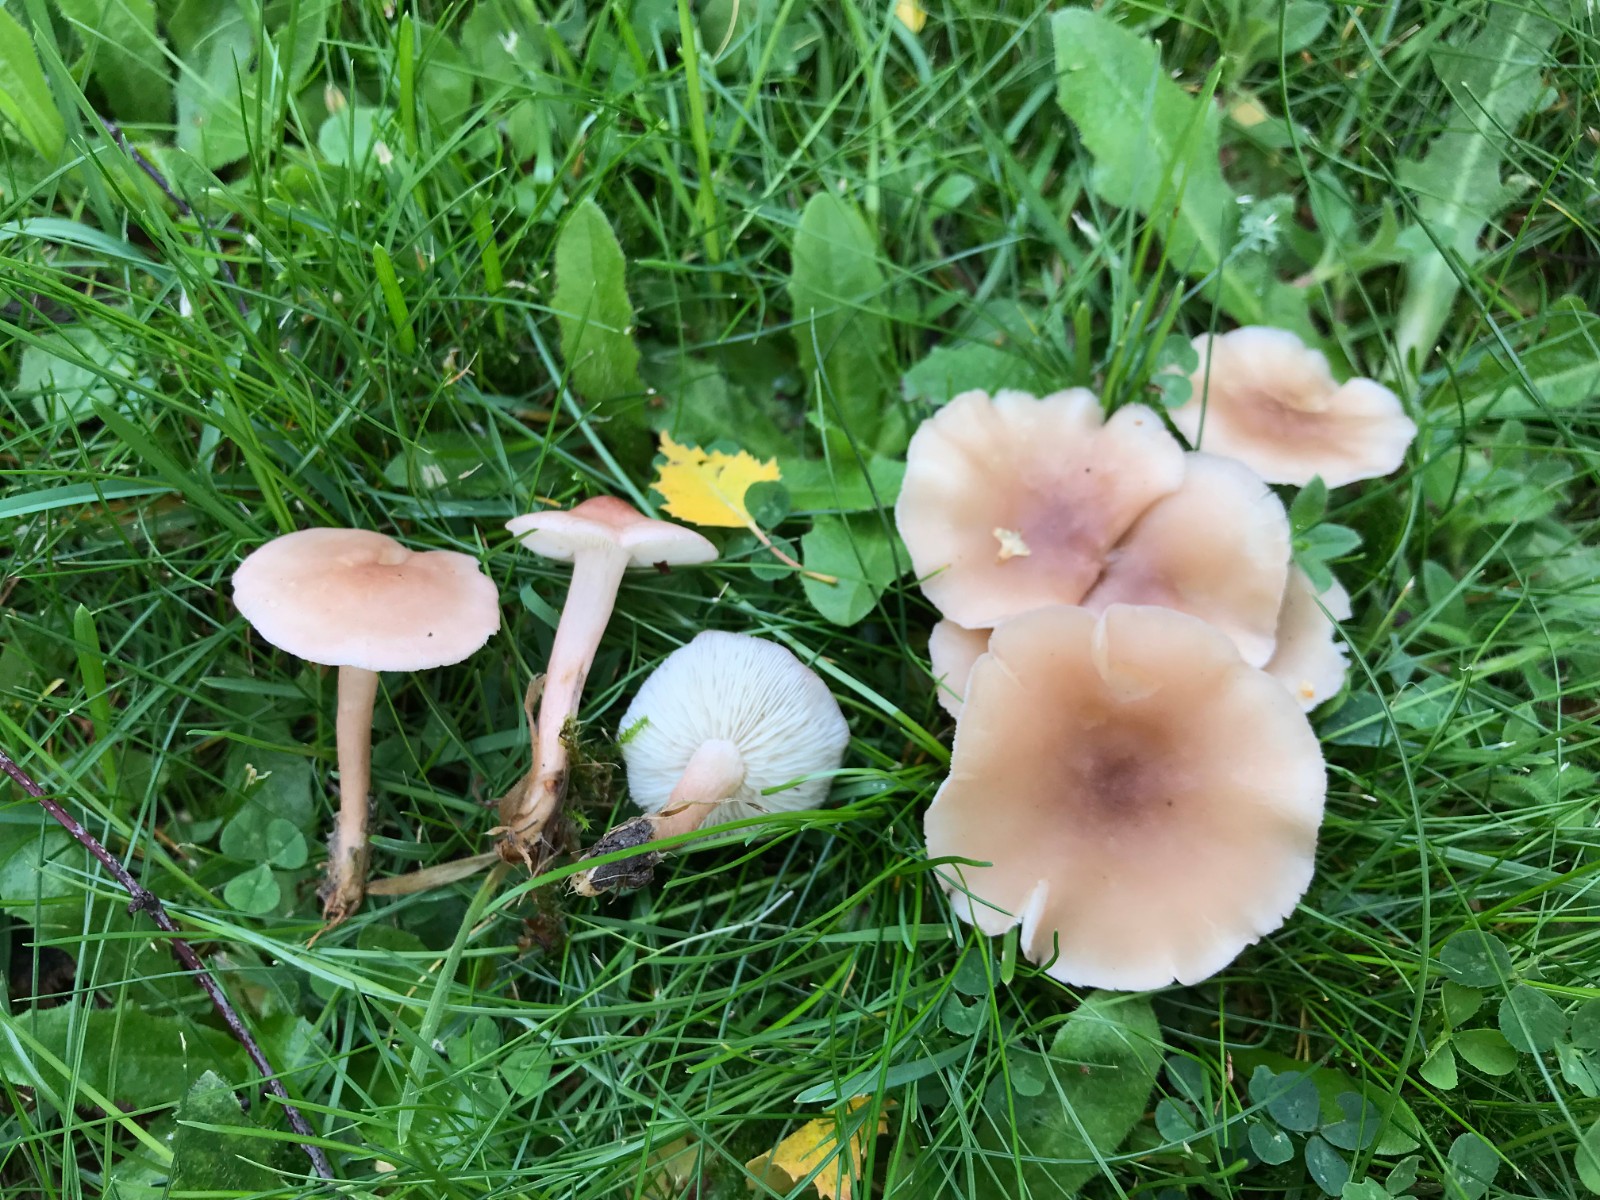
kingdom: Fungi
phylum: Basidiomycota
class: Agaricomycetes
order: Agaricales
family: Lyophyllaceae
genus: Calocybe
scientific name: Calocybe carnea
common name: rosa fagerhat
